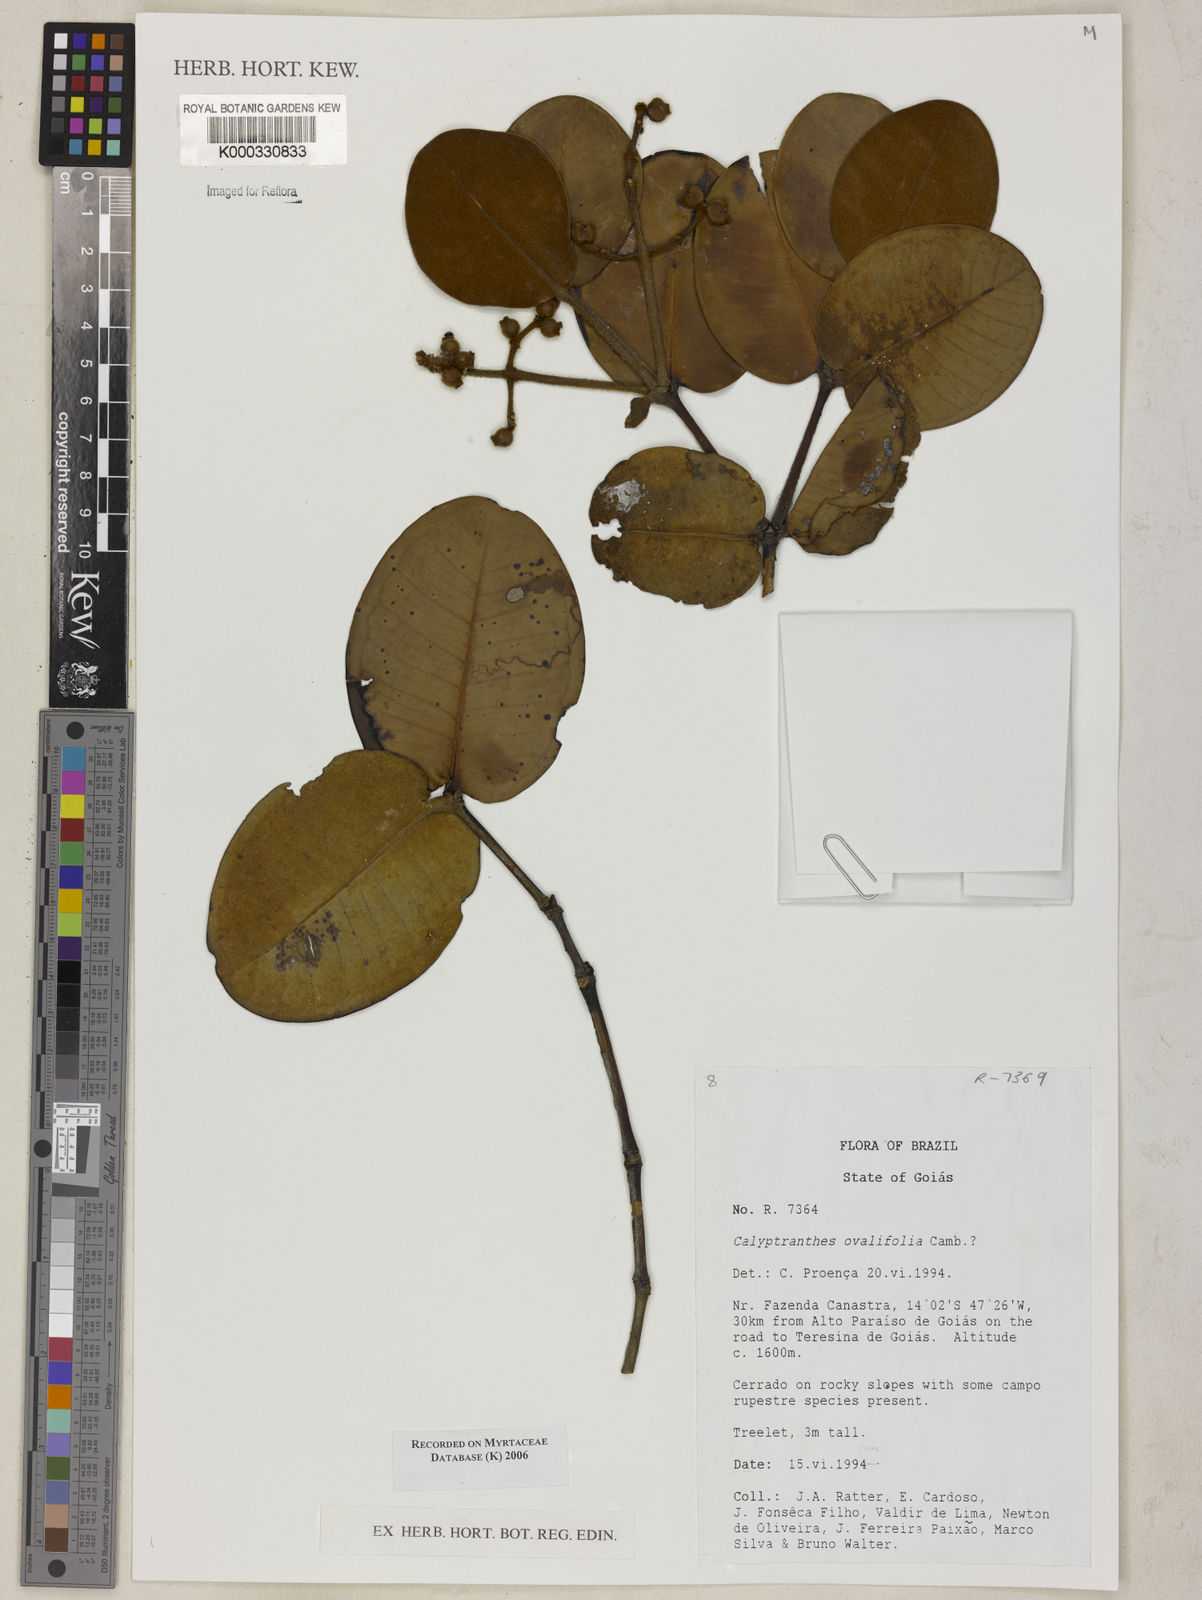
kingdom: Plantae
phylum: Tracheophyta
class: Magnoliopsida
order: Myrtales
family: Myrtaceae
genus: Calyptranthes
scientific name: Calyptranthes ovalifolia
